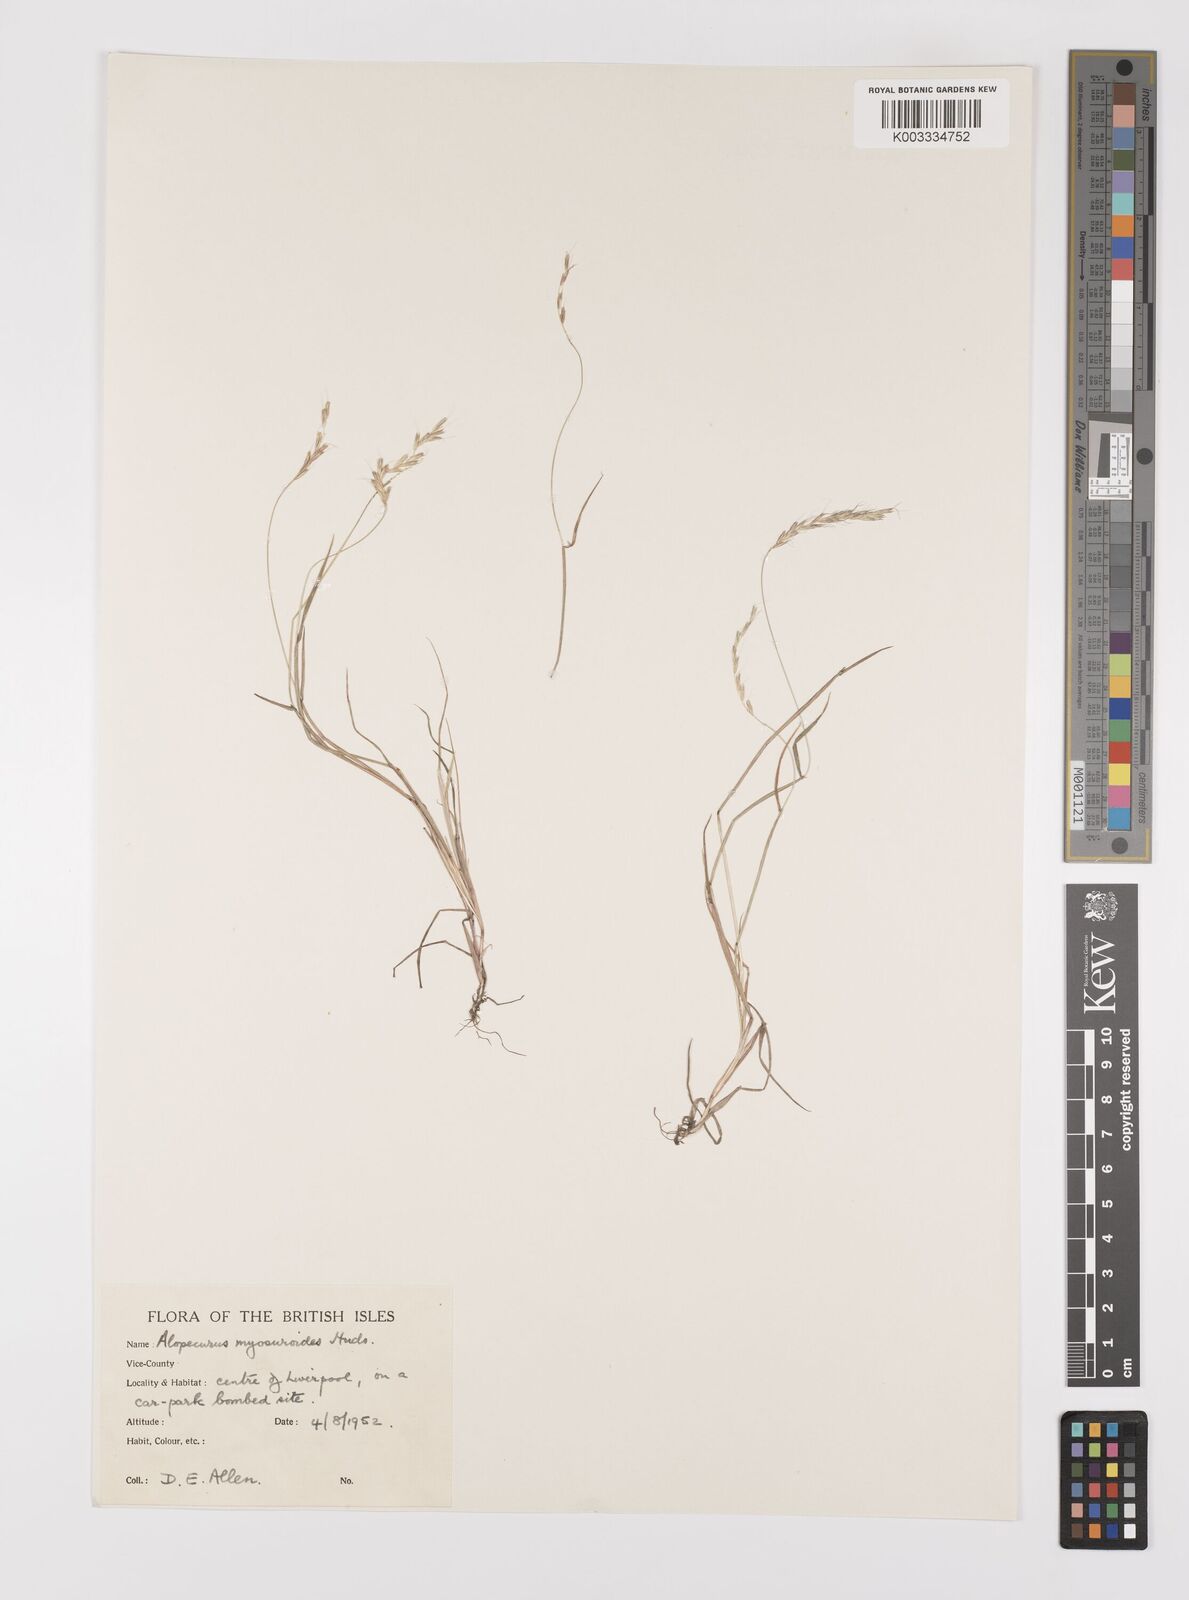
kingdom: Plantae
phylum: Tracheophyta
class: Liliopsida
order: Poales
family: Poaceae
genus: Alopecurus
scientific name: Alopecurus myosuroides
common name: Black-grass
